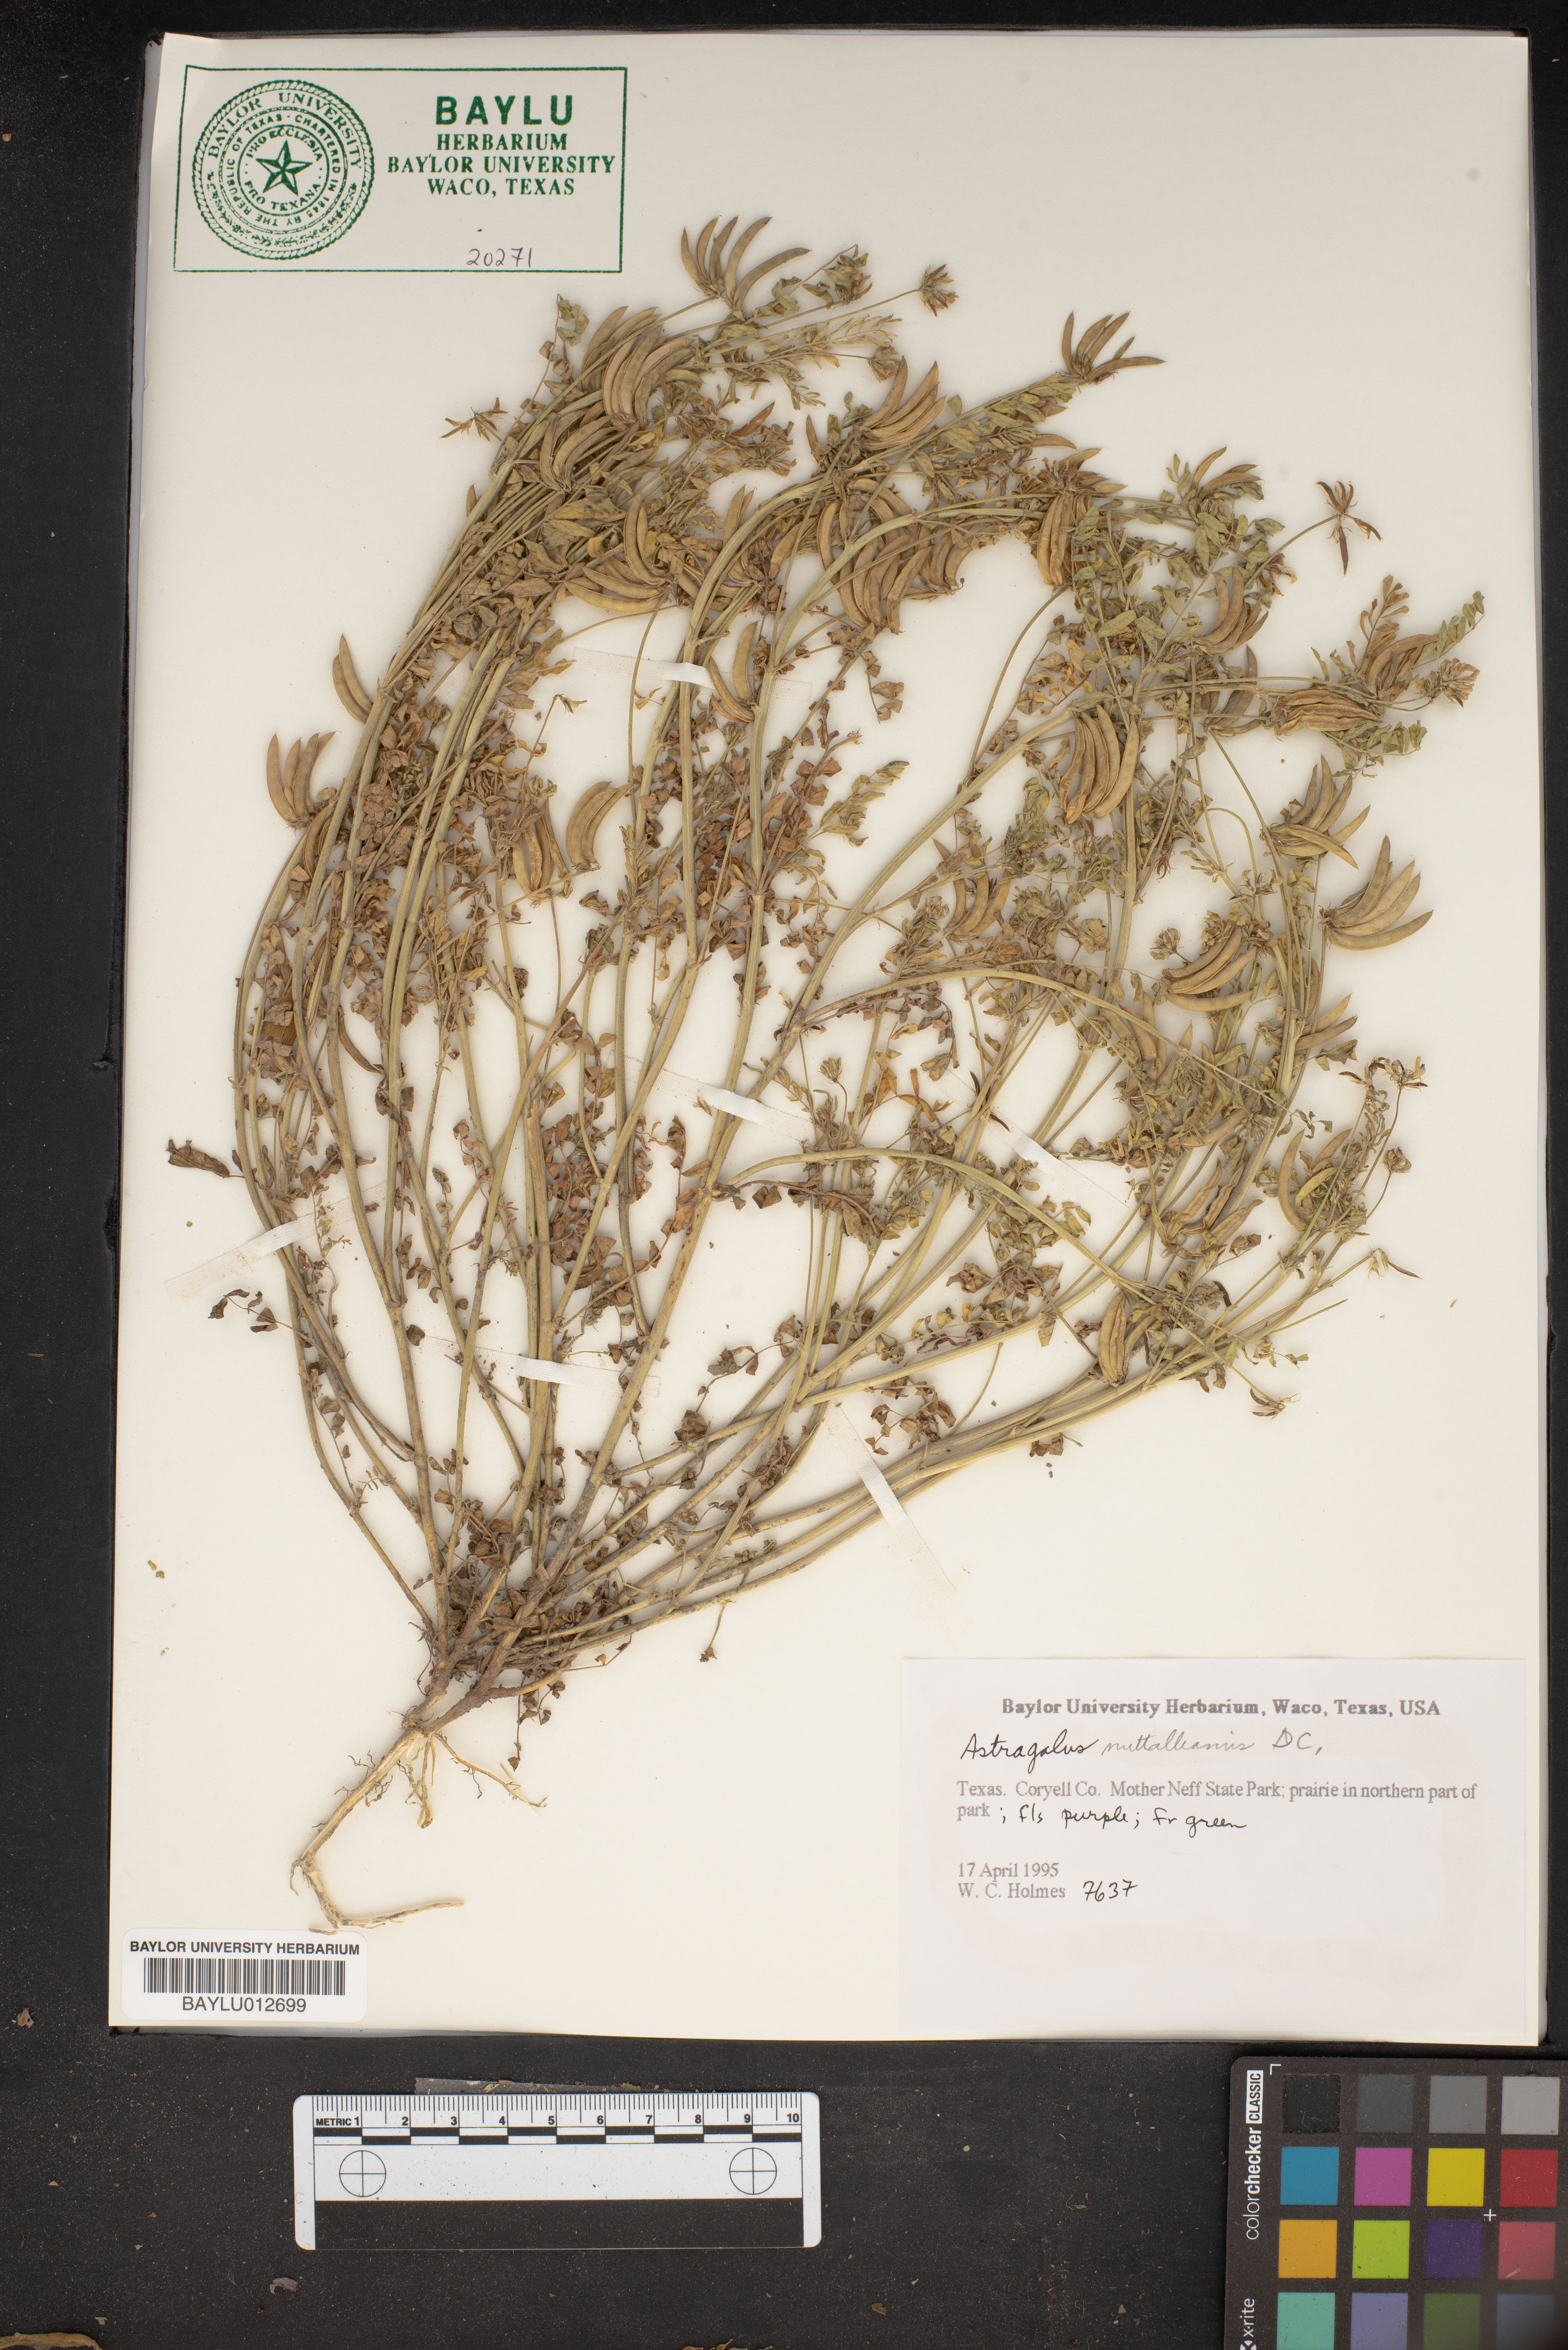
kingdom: Plantae
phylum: Tracheophyta
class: Magnoliopsida
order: Fabales
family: Fabaceae
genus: Astragalus
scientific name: Astragalus nuttallianus
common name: Smallflowered milkvetch
